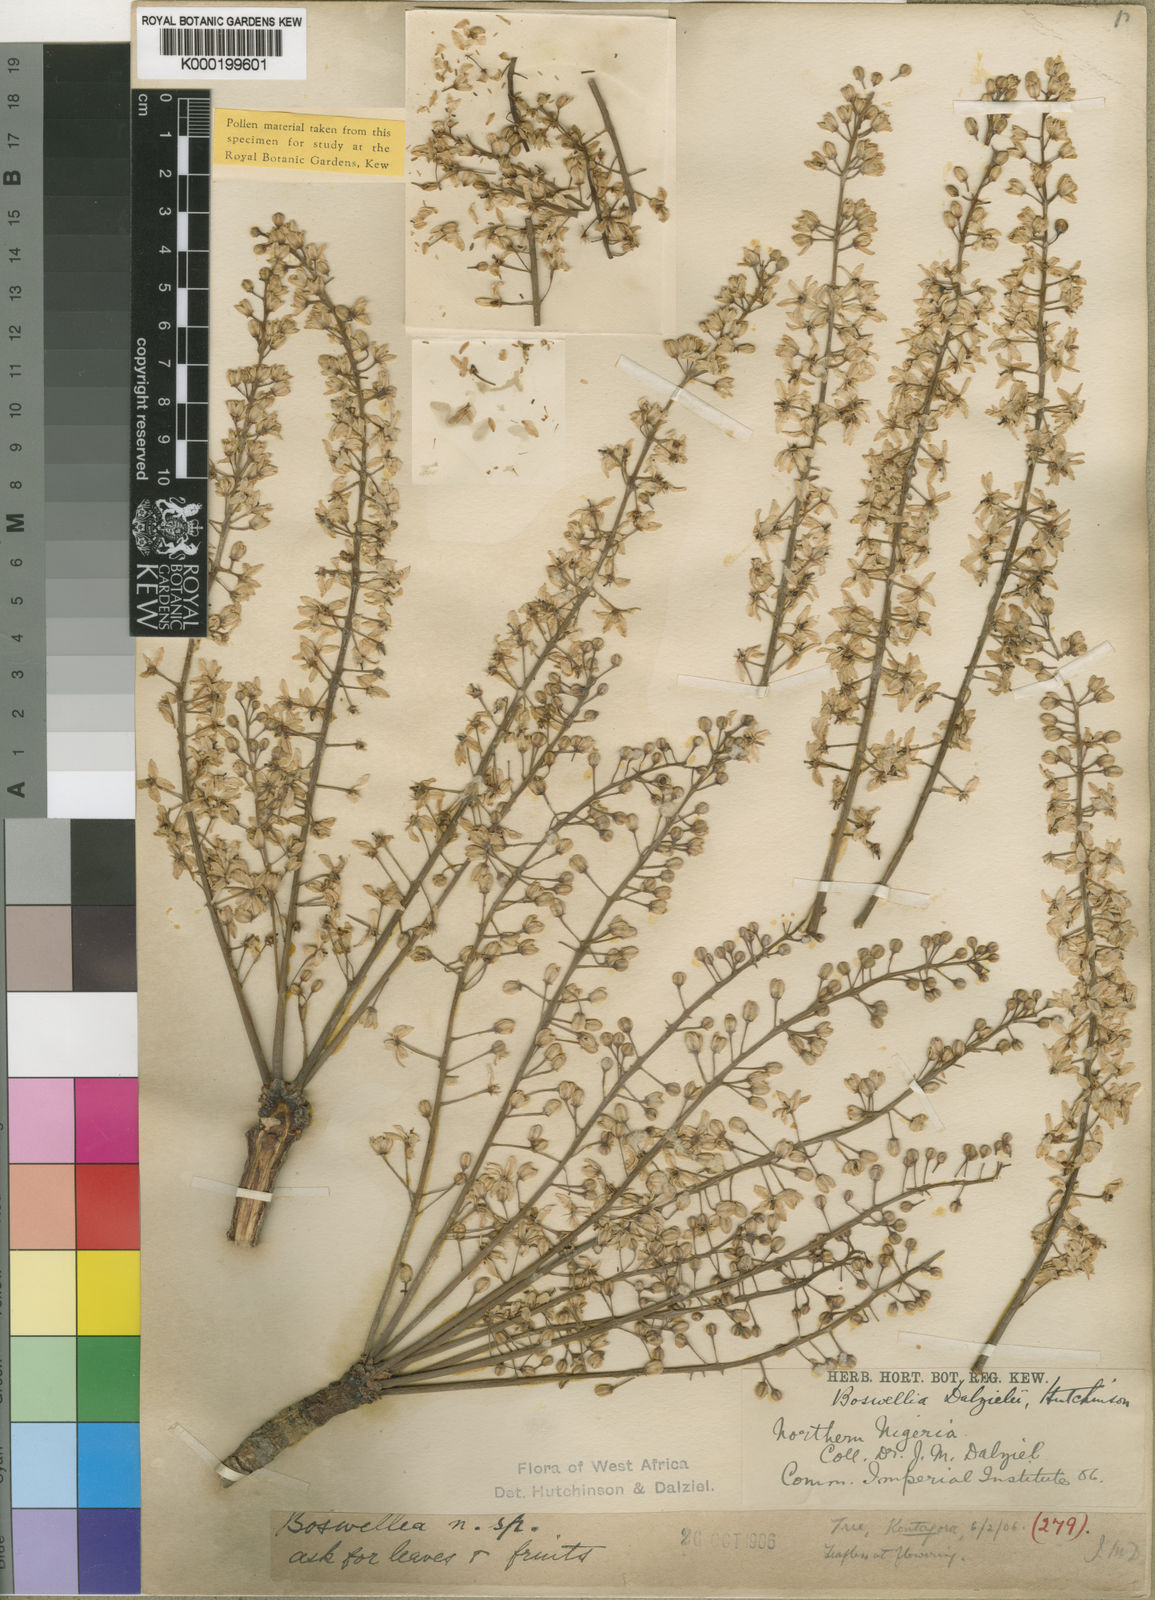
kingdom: Plantae
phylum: Tracheophyta
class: Magnoliopsida
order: Sapindales
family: Burseraceae
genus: Boswellia
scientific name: Boswellia dalzielii
